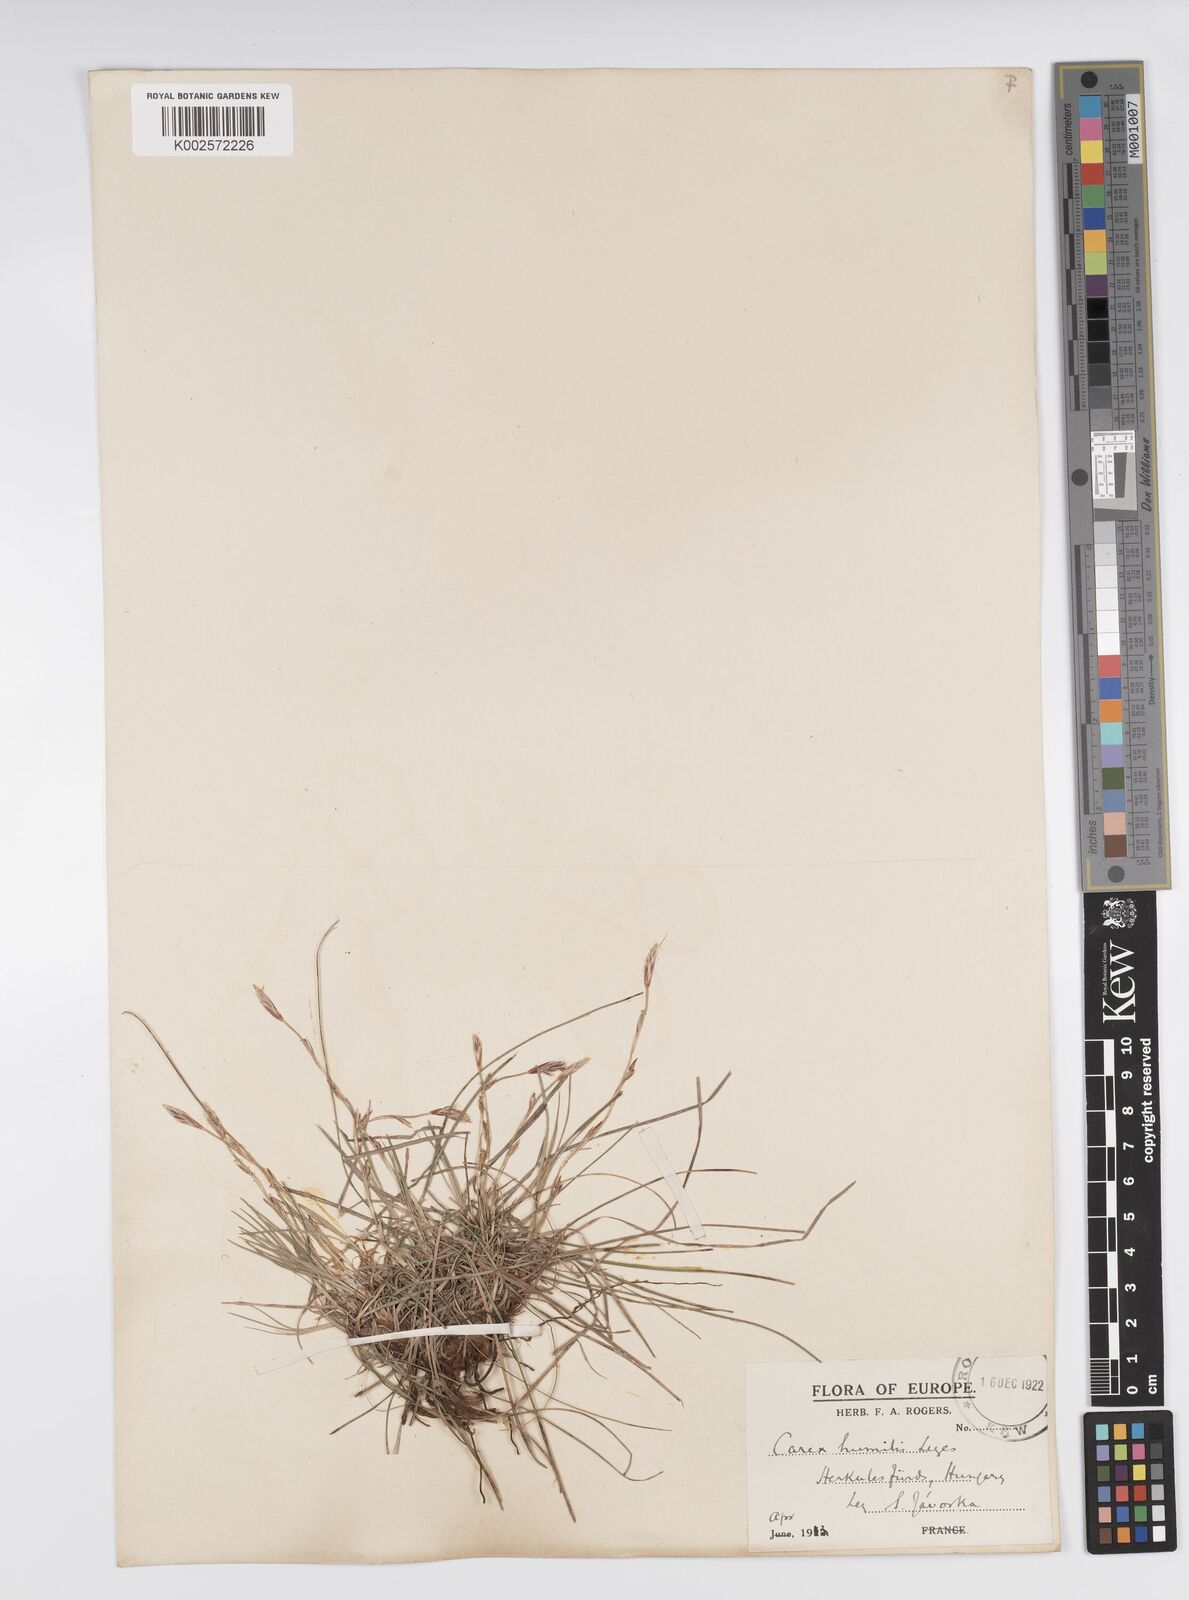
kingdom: Plantae
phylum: Tracheophyta
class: Liliopsida
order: Poales
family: Cyperaceae
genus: Carex
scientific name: Carex humilis
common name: Dwarf sedge
